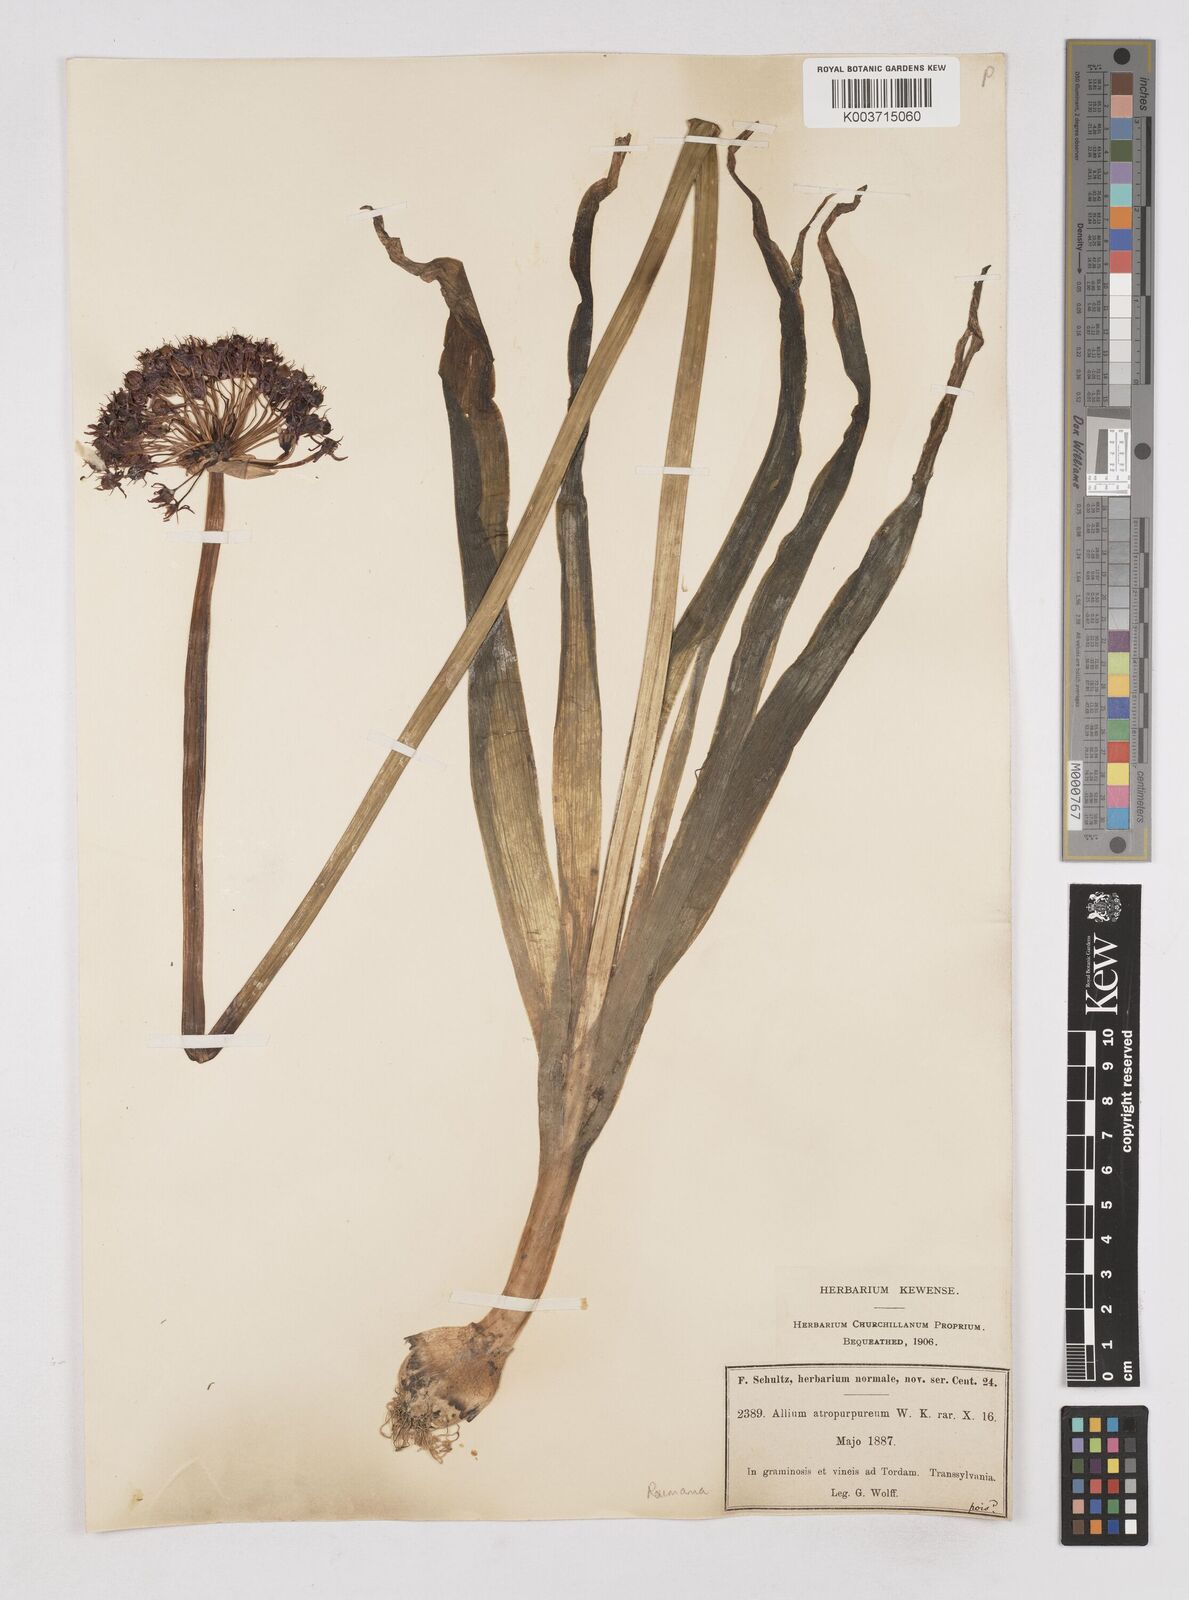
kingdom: Plantae
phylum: Tracheophyta
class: Liliopsida
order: Asparagales
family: Amaryllidaceae
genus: Allium
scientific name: Allium atropurpureum
